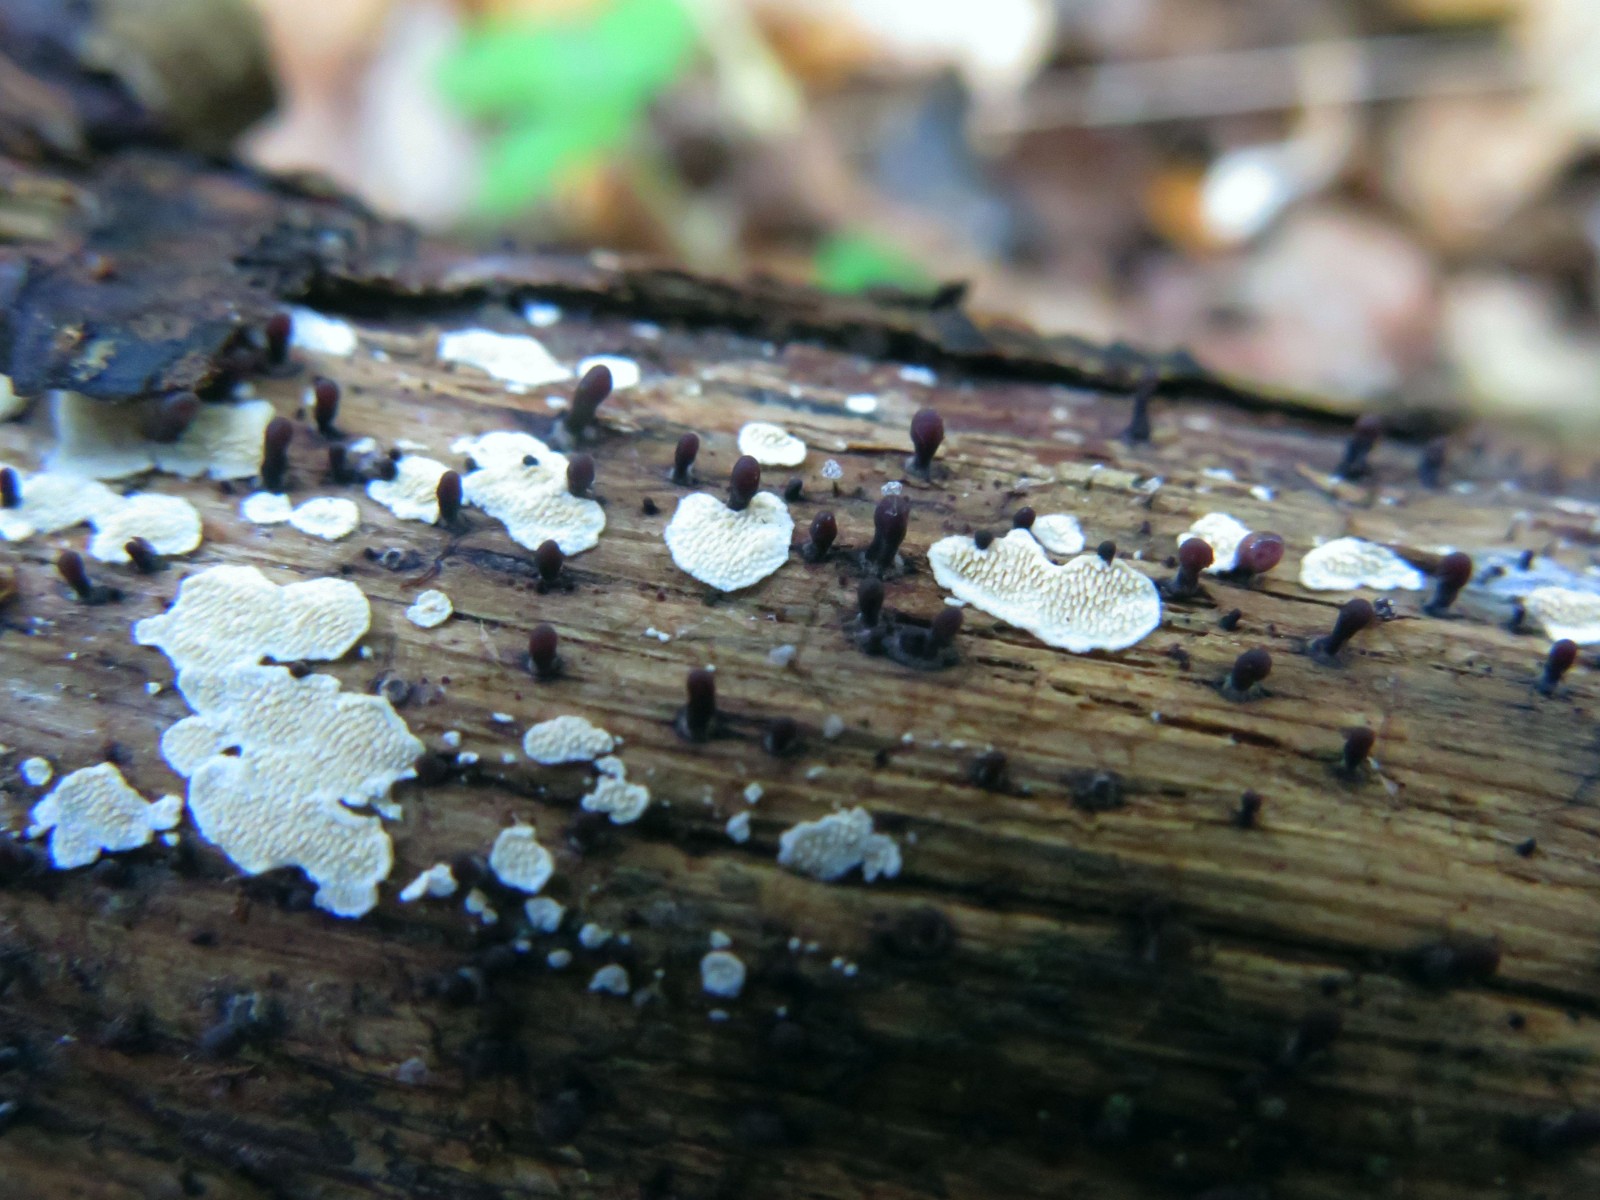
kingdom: Fungi
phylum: Ascomycota
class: Leotiomycetes
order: Helotiales
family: Gelatinodiscaceae
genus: Ascocoryne
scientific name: Ascocoryne
